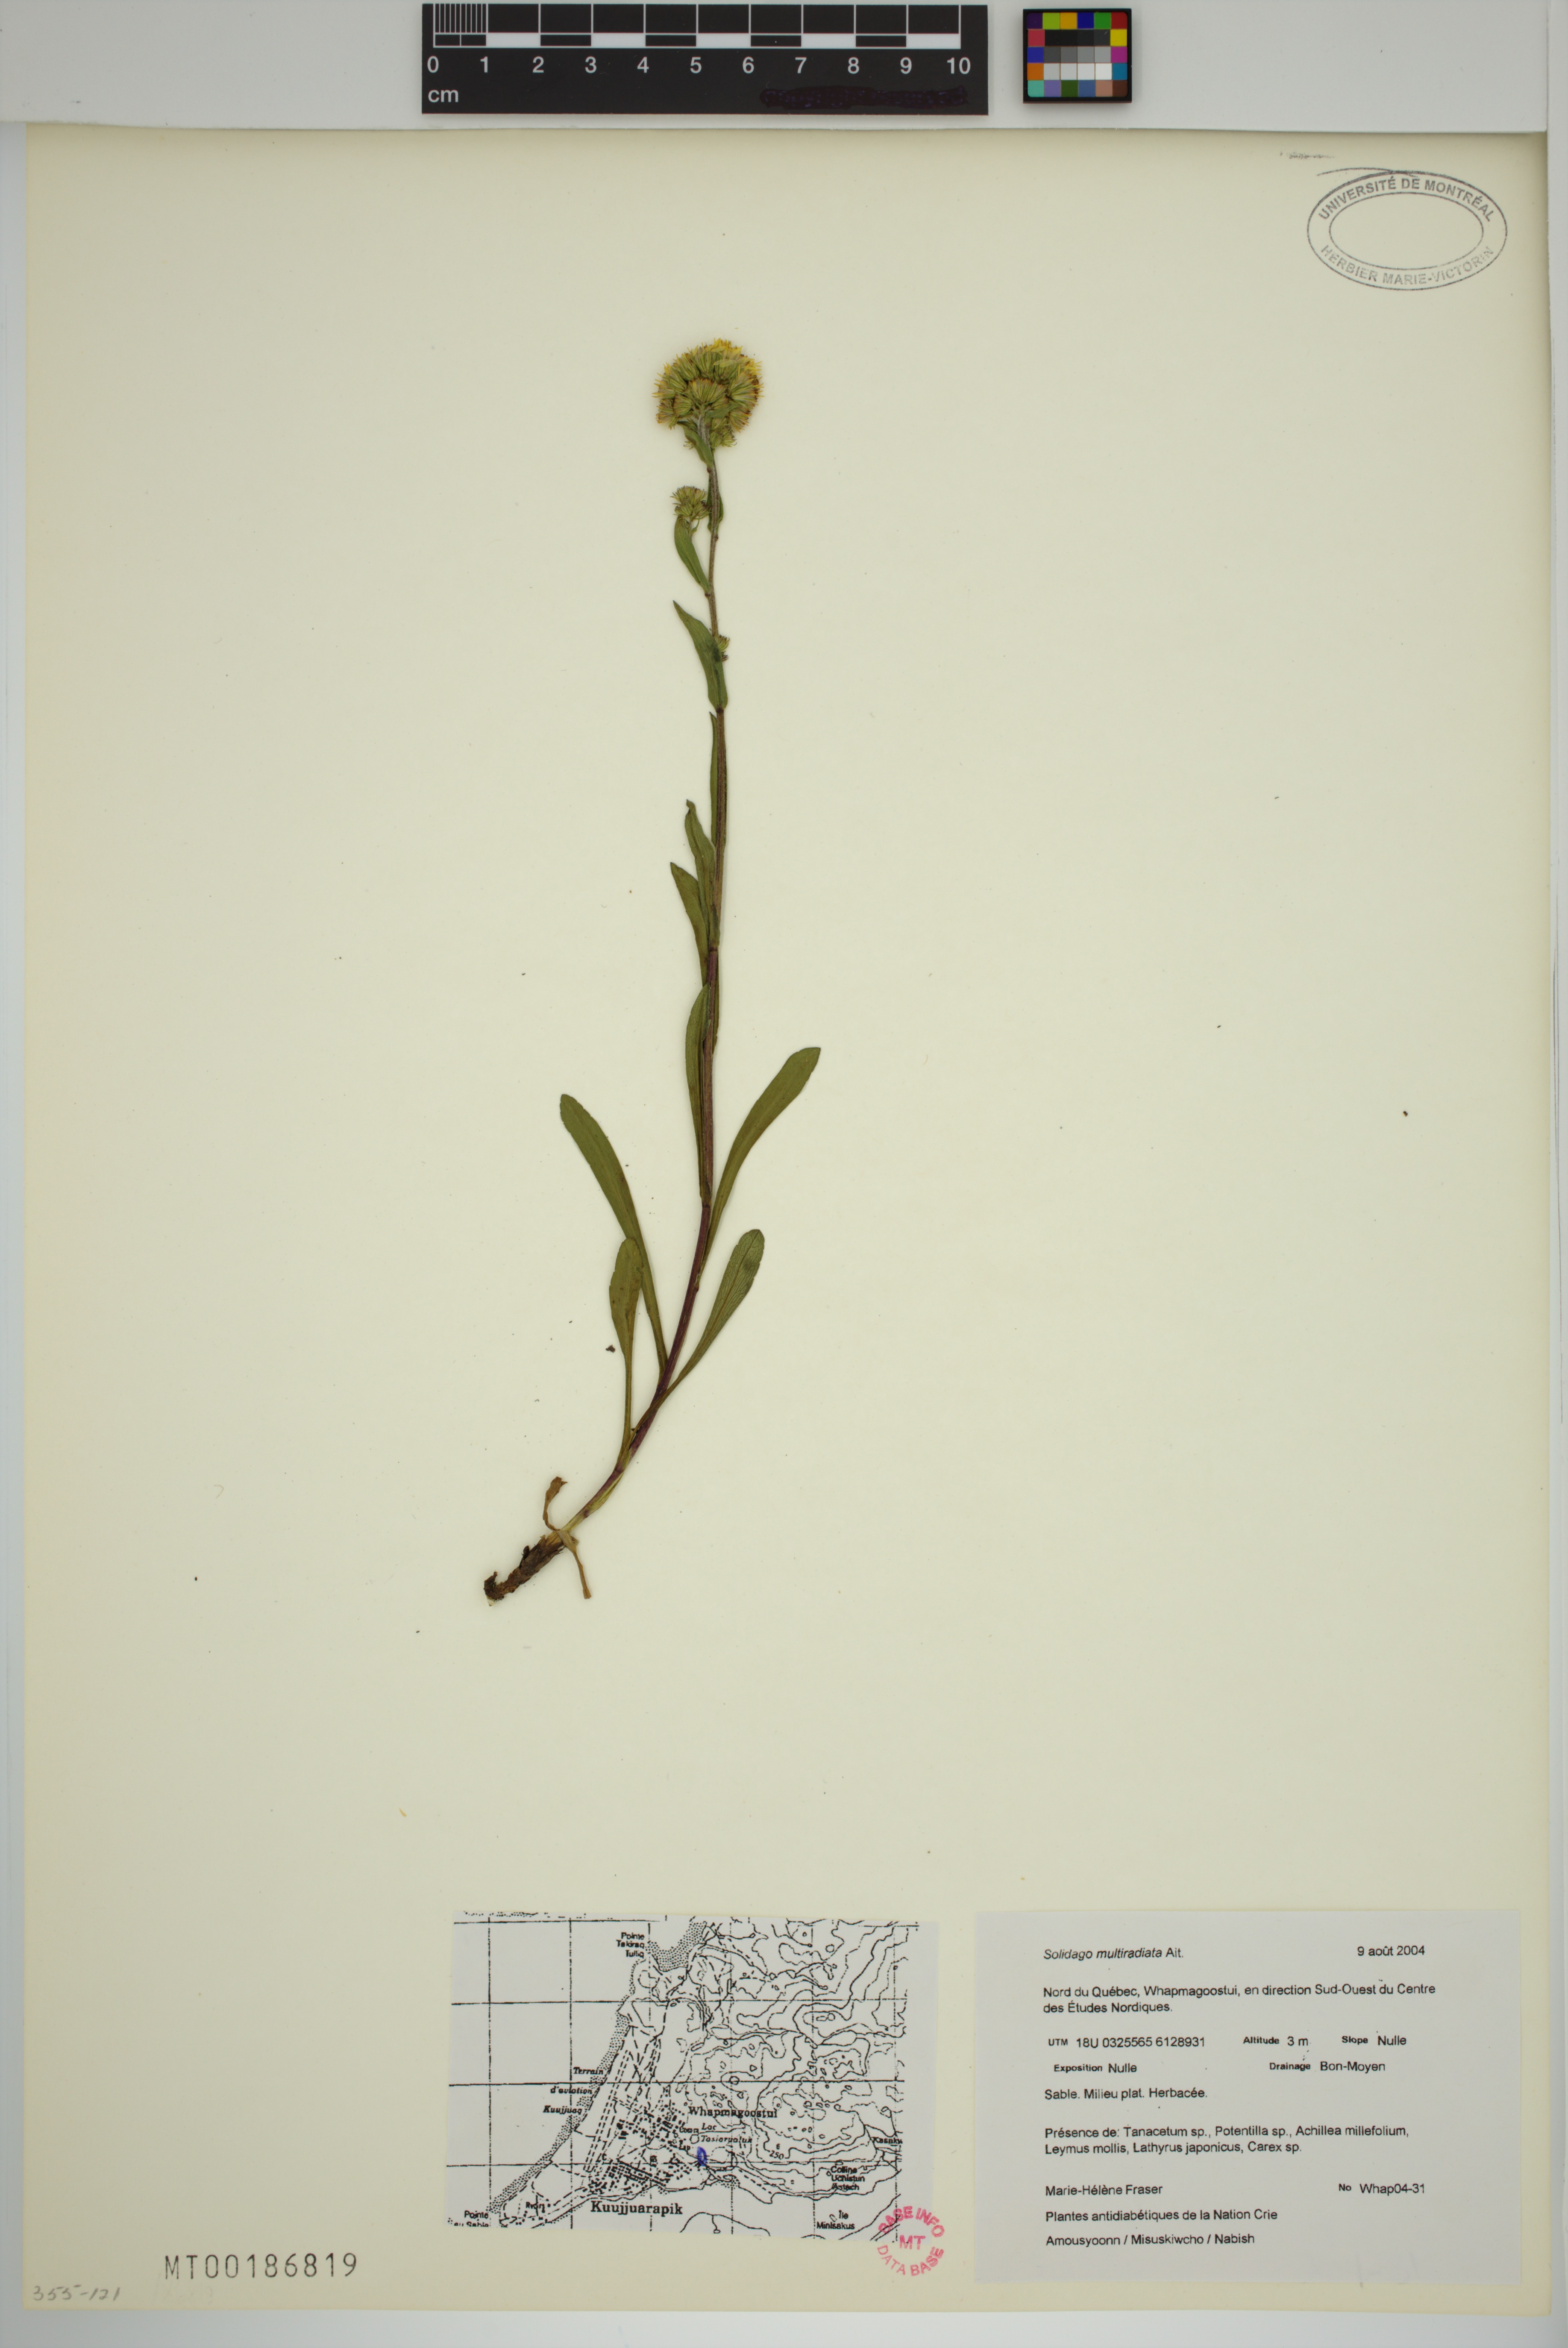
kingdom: Plantae
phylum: Tracheophyta
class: Magnoliopsida
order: Asterales
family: Asteraceae
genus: Solidago
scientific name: Solidago multiradiata
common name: Northern goldenrod
